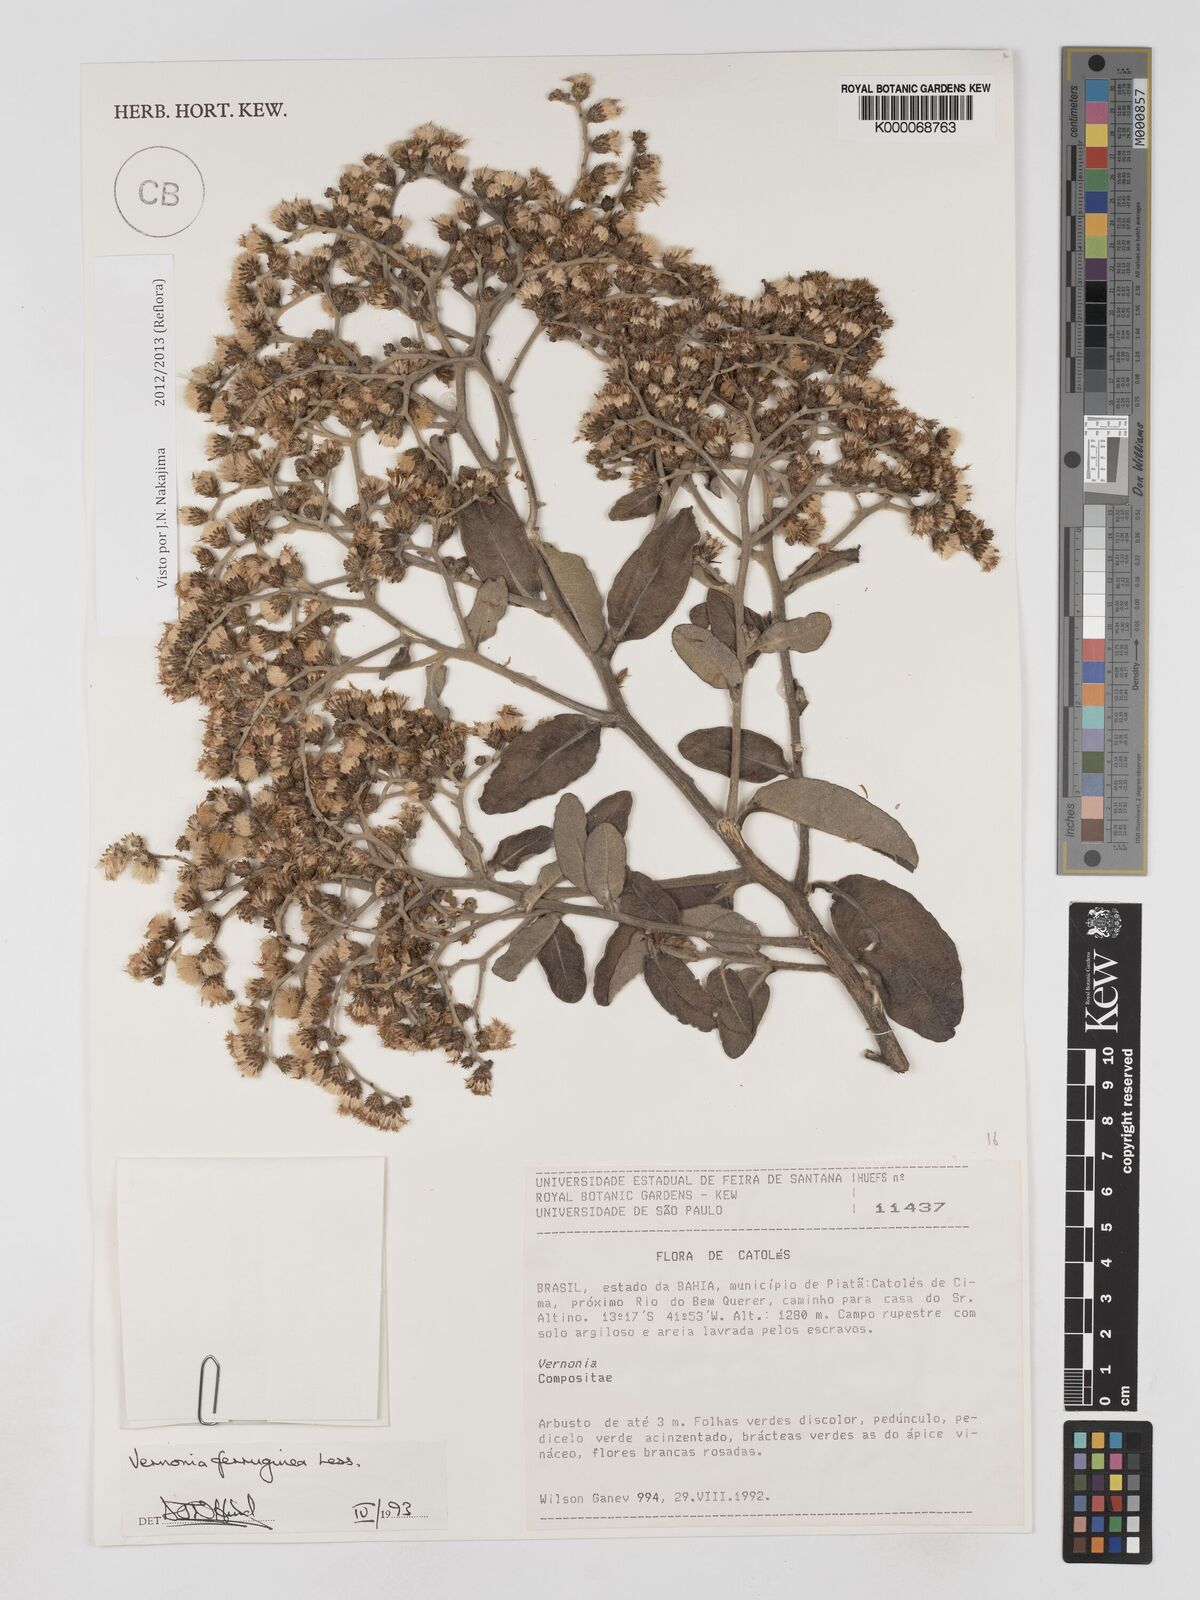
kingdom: Plantae
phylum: Tracheophyta
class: Magnoliopsida
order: Asterales
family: Asteraceae
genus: Vernonanthura
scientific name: Vernonanthura ferruginea
